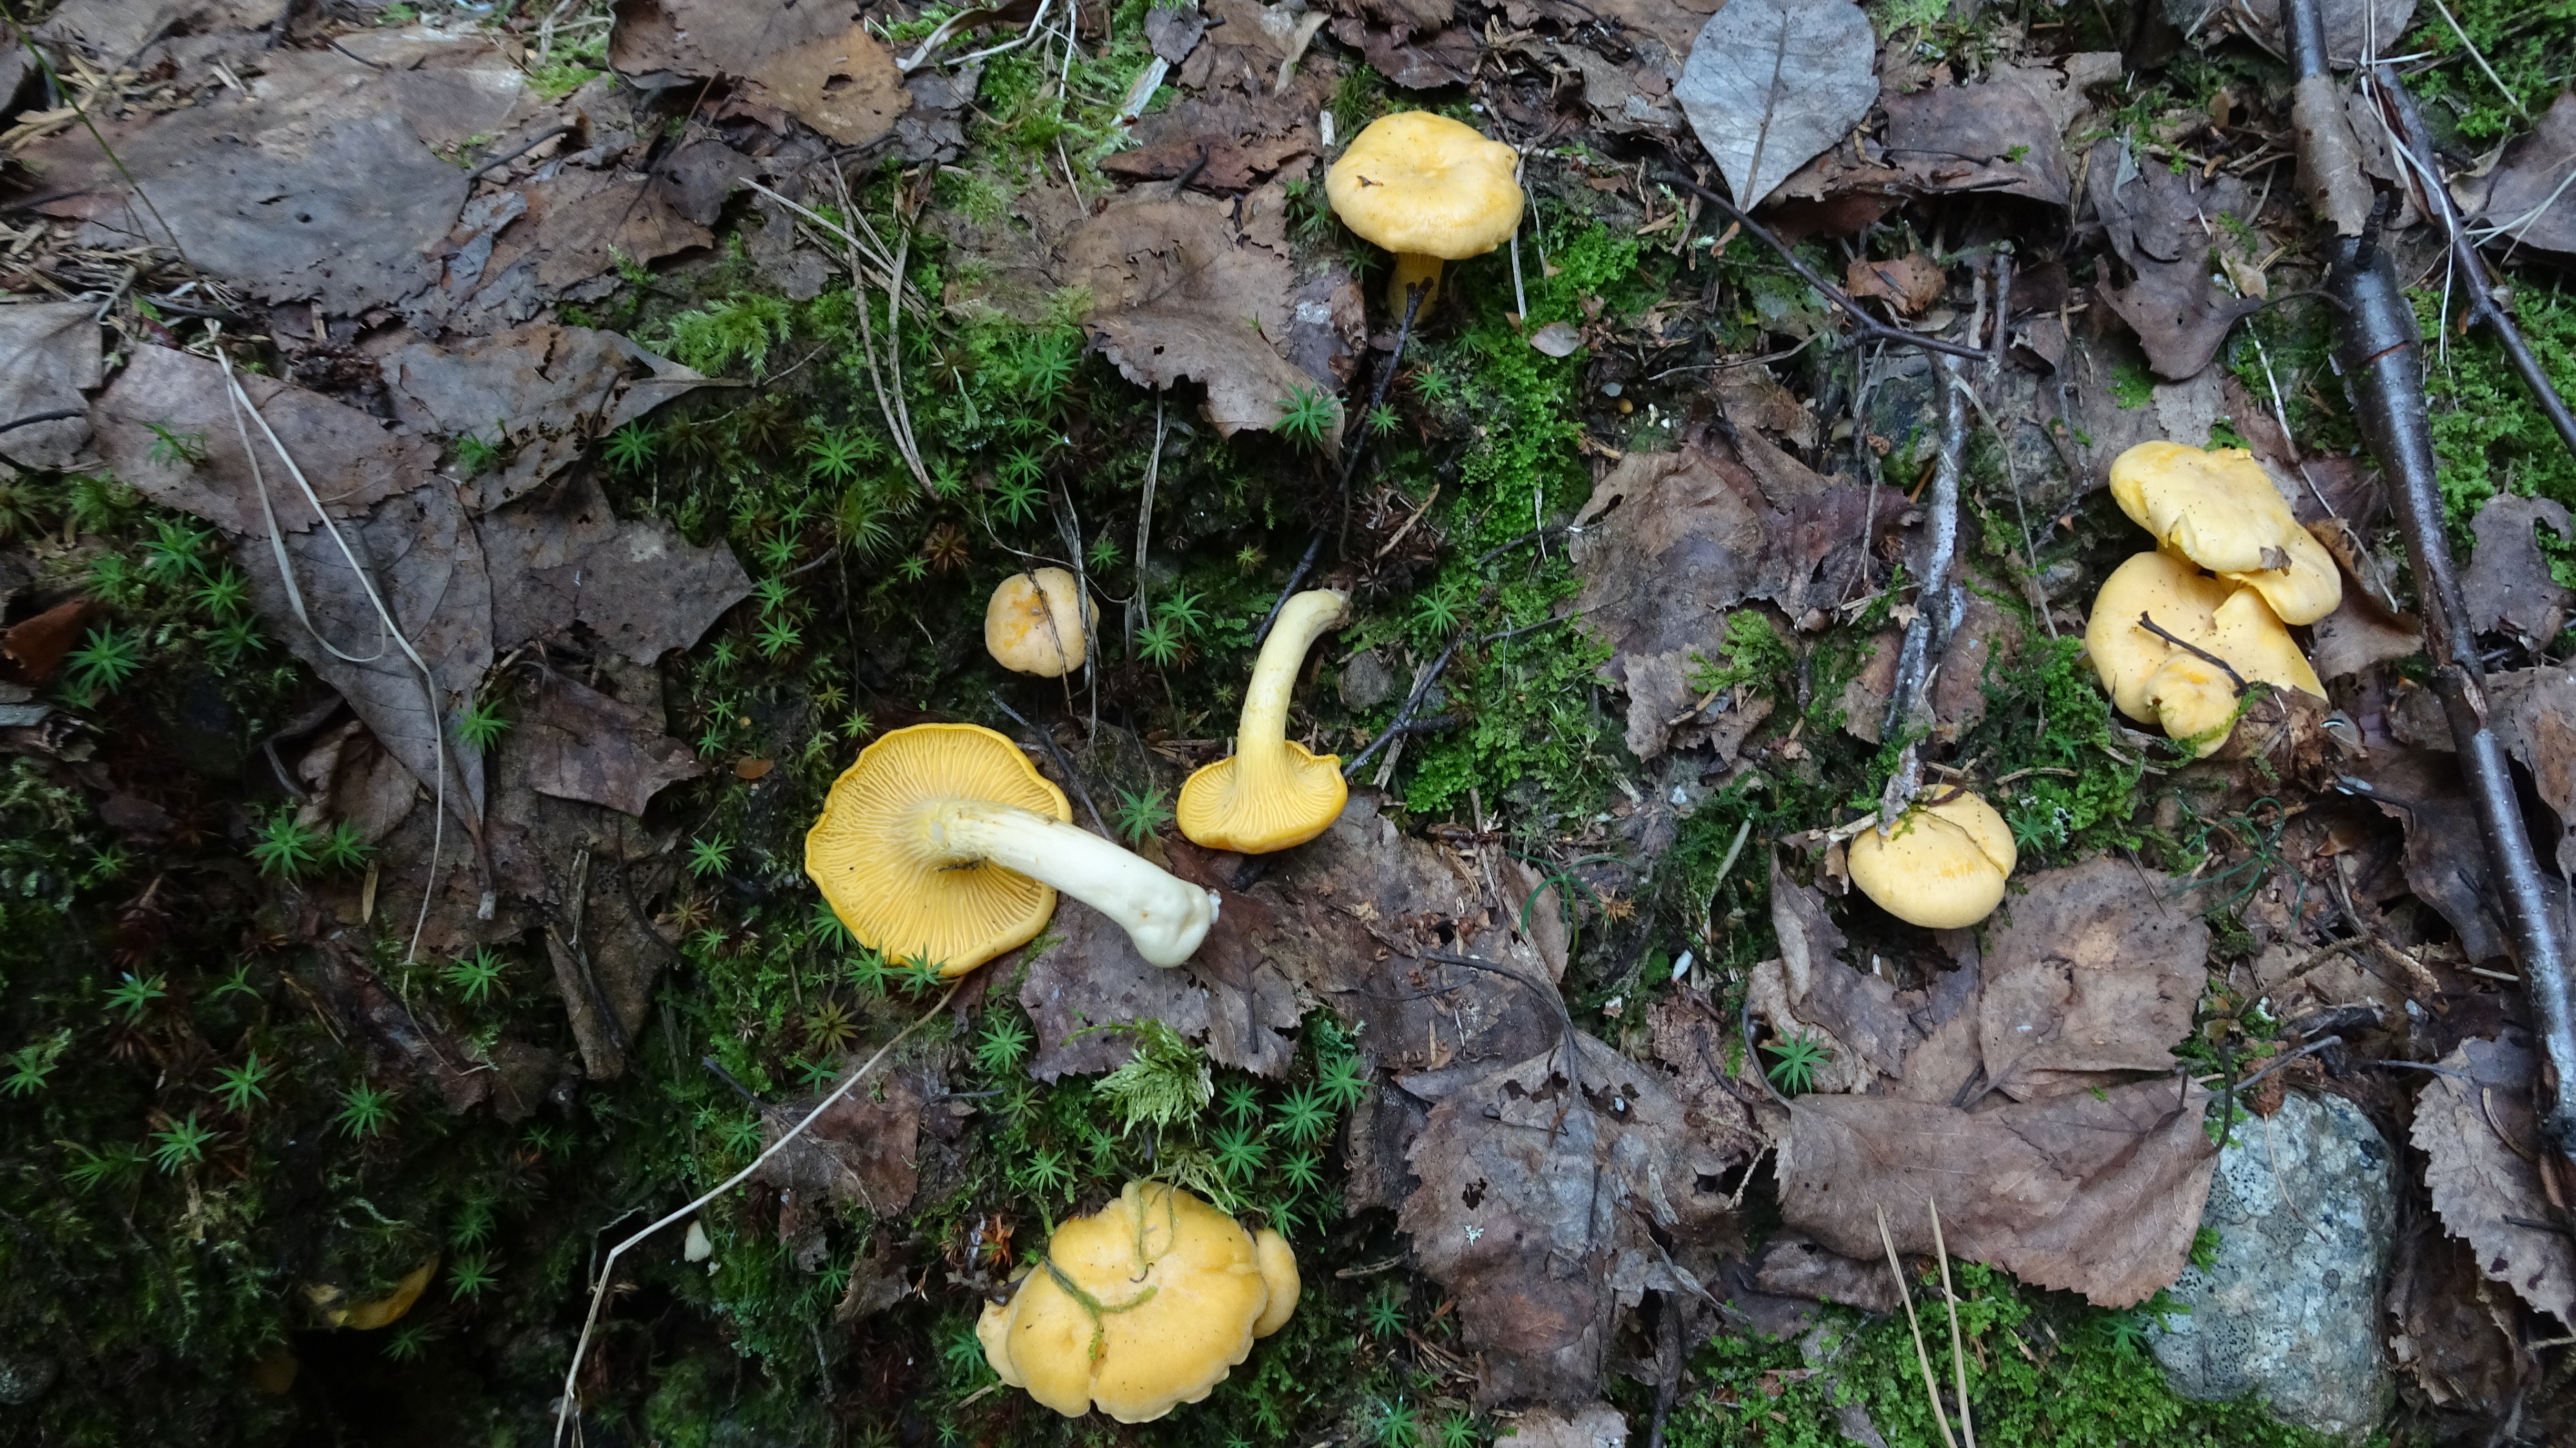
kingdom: Fungi
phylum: Basidiomycota
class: Agaricomycetes
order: Cantharellales
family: Hydnaceae
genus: Cantharellus
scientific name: Cantharellus cibarius
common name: Chanterelle
